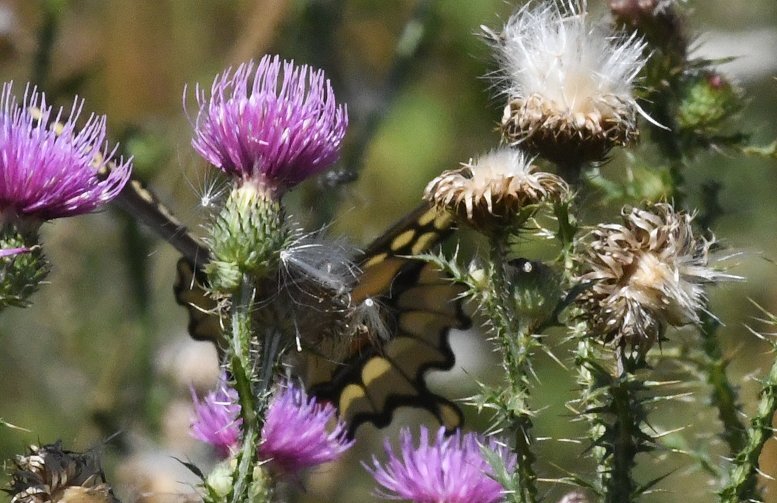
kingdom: Animalia
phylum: Arthropoda
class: Insecta
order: Lepidoptera
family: Papilionidae
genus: Papilio
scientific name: Papilio cresphontes
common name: Eastern Giant Swallowtail
